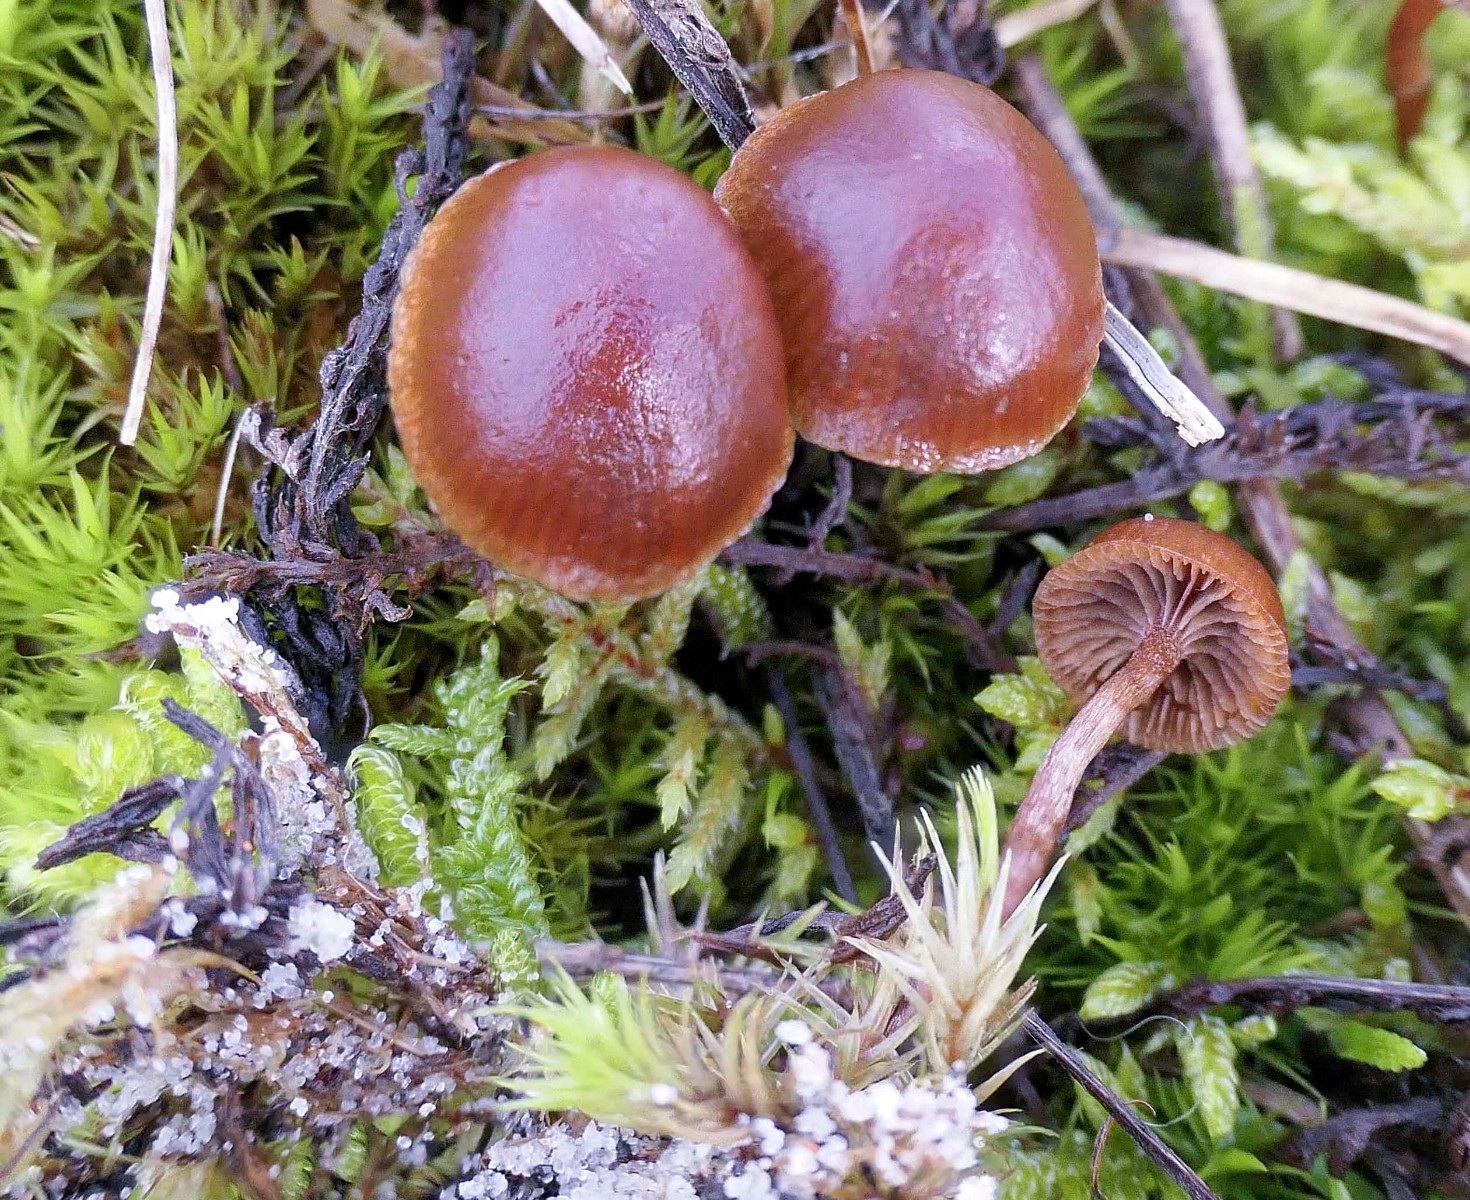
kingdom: Fungi
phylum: Basidiomycota
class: Agaricomycetes
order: Agaricales
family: Strophariaceae
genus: Deconica
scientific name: Deconica montana
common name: rødbrun stråhat
